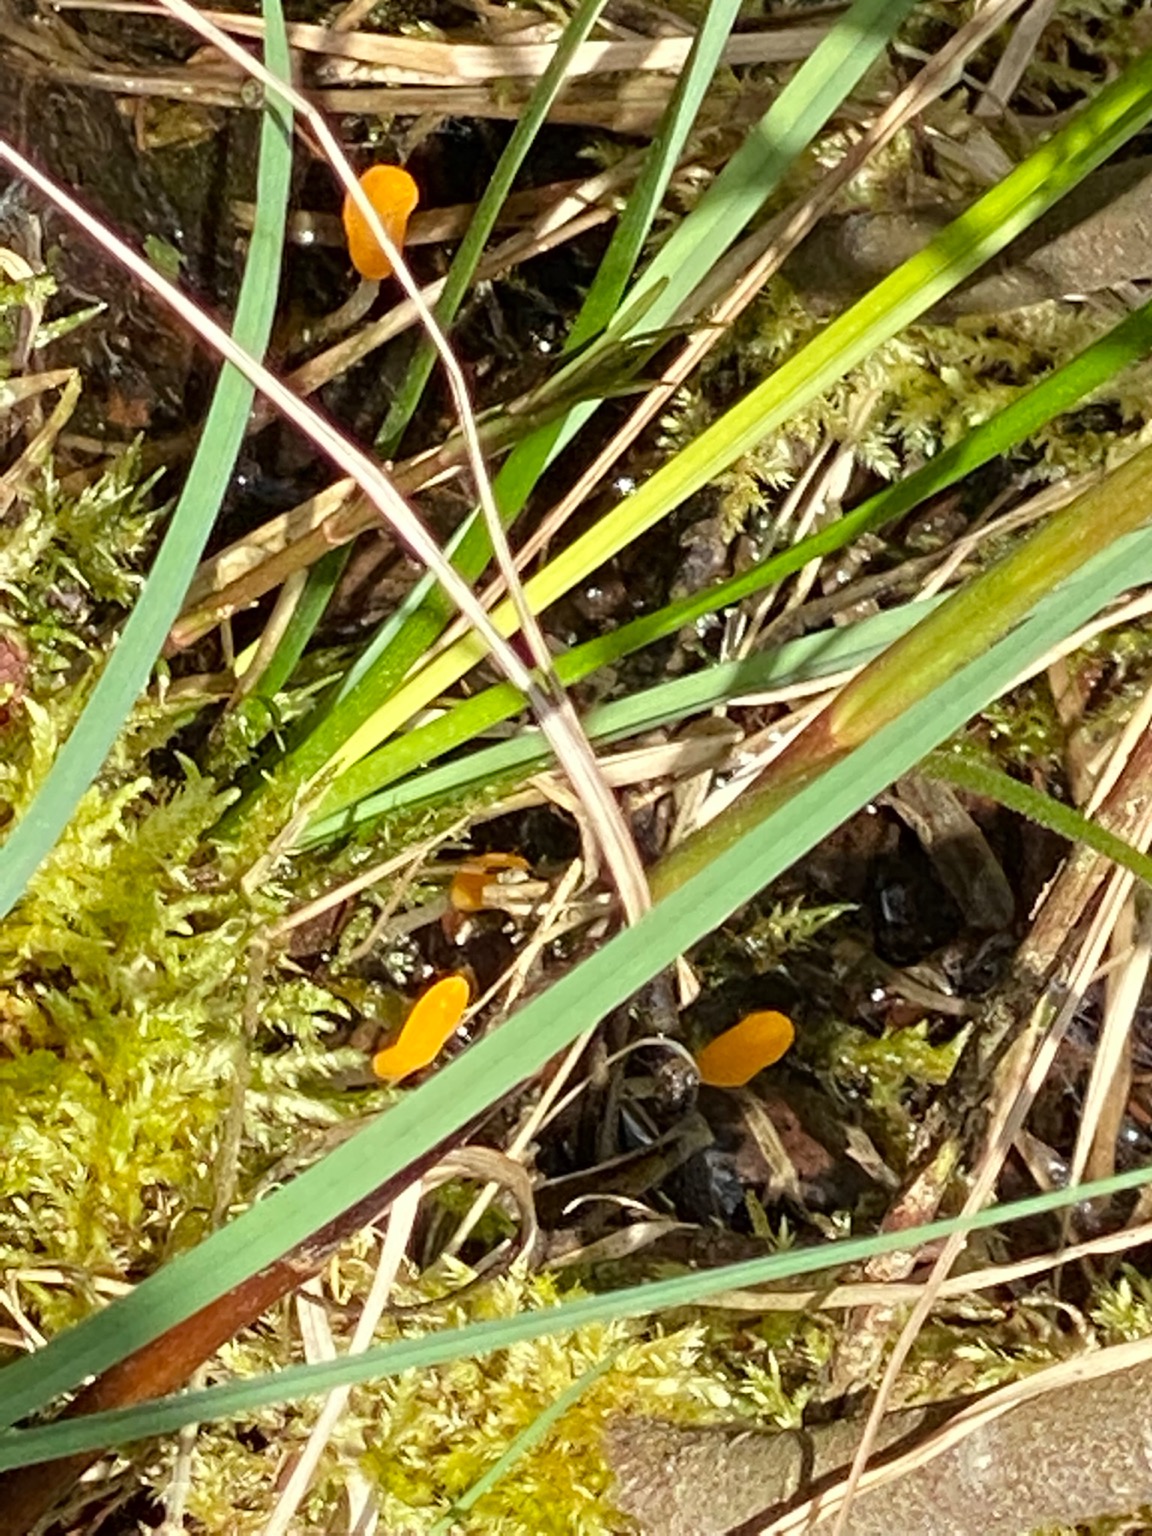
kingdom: Fungi
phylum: Ascomycota
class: Leotiomycetes
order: Helotiales
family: Cenangiaceae
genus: Mitrula
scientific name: Mitrula paludosa
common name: Gul nøkketunge
